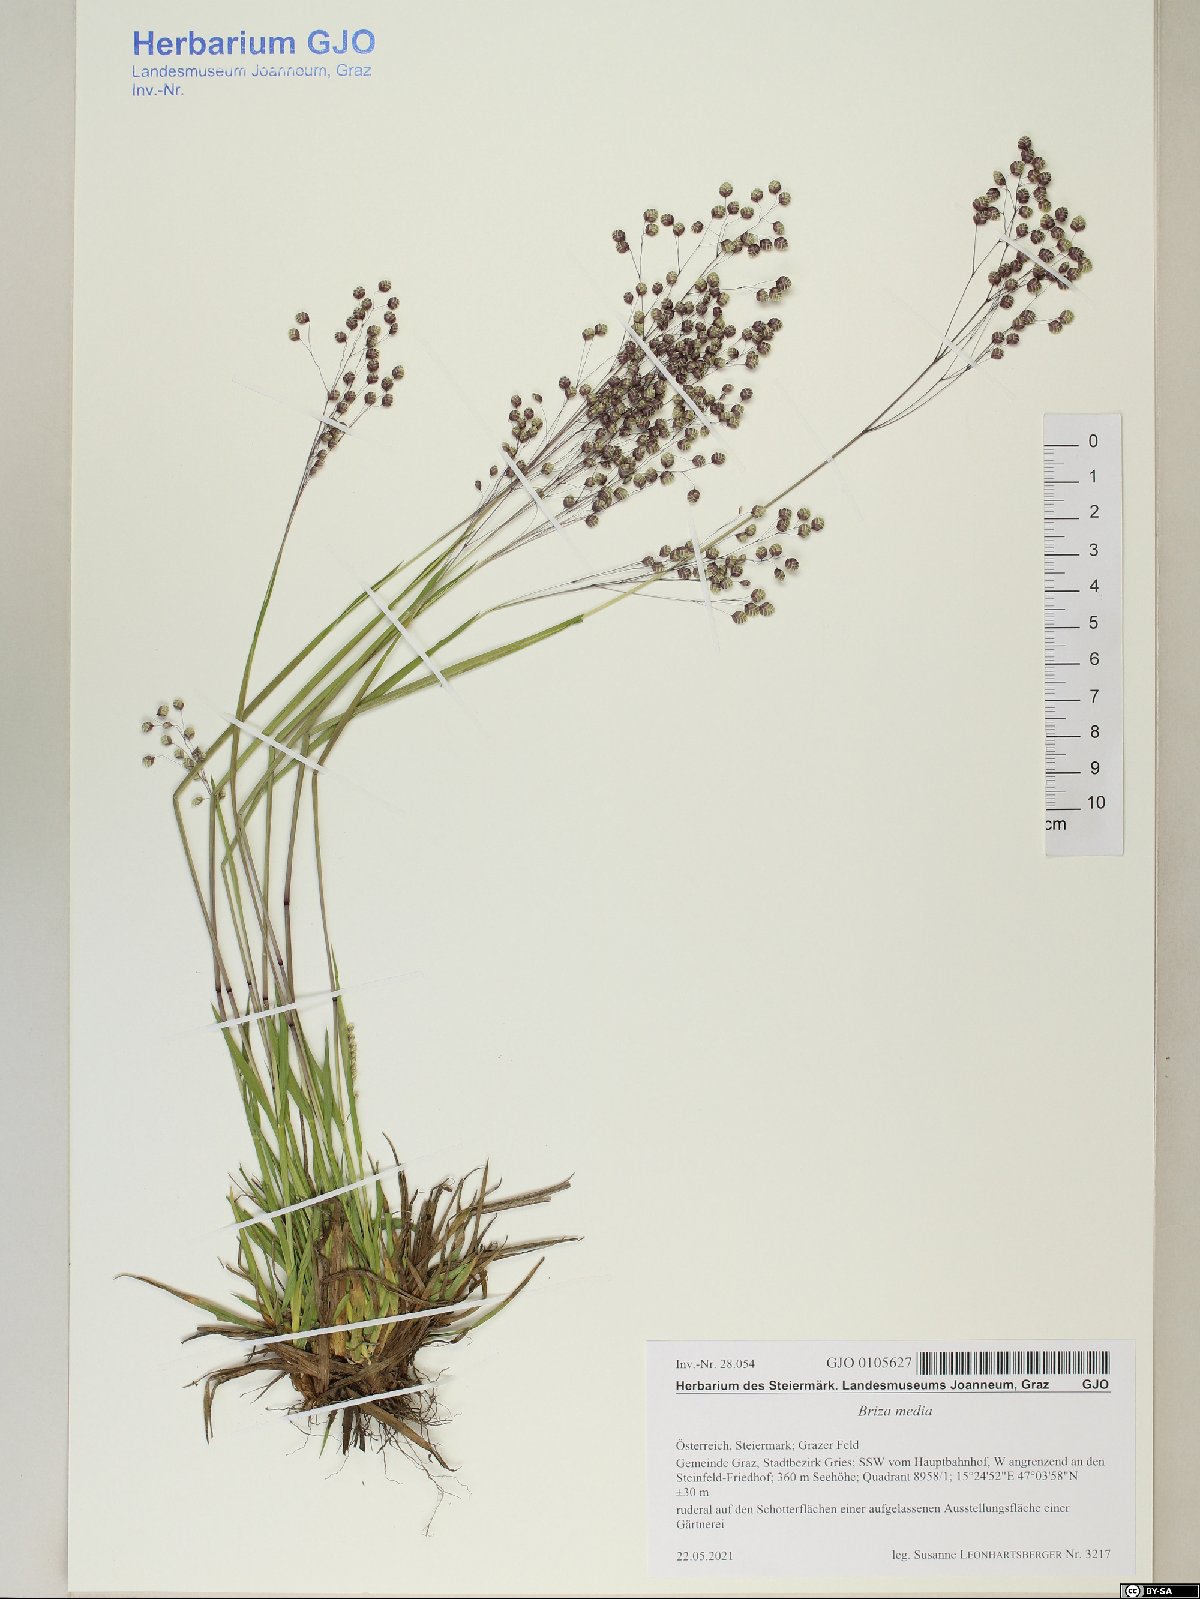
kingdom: Plantae
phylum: Tracheophyta
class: Liliopsida
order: Poales
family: Poaceae
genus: Briza
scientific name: Briza media
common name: Quaking grass
